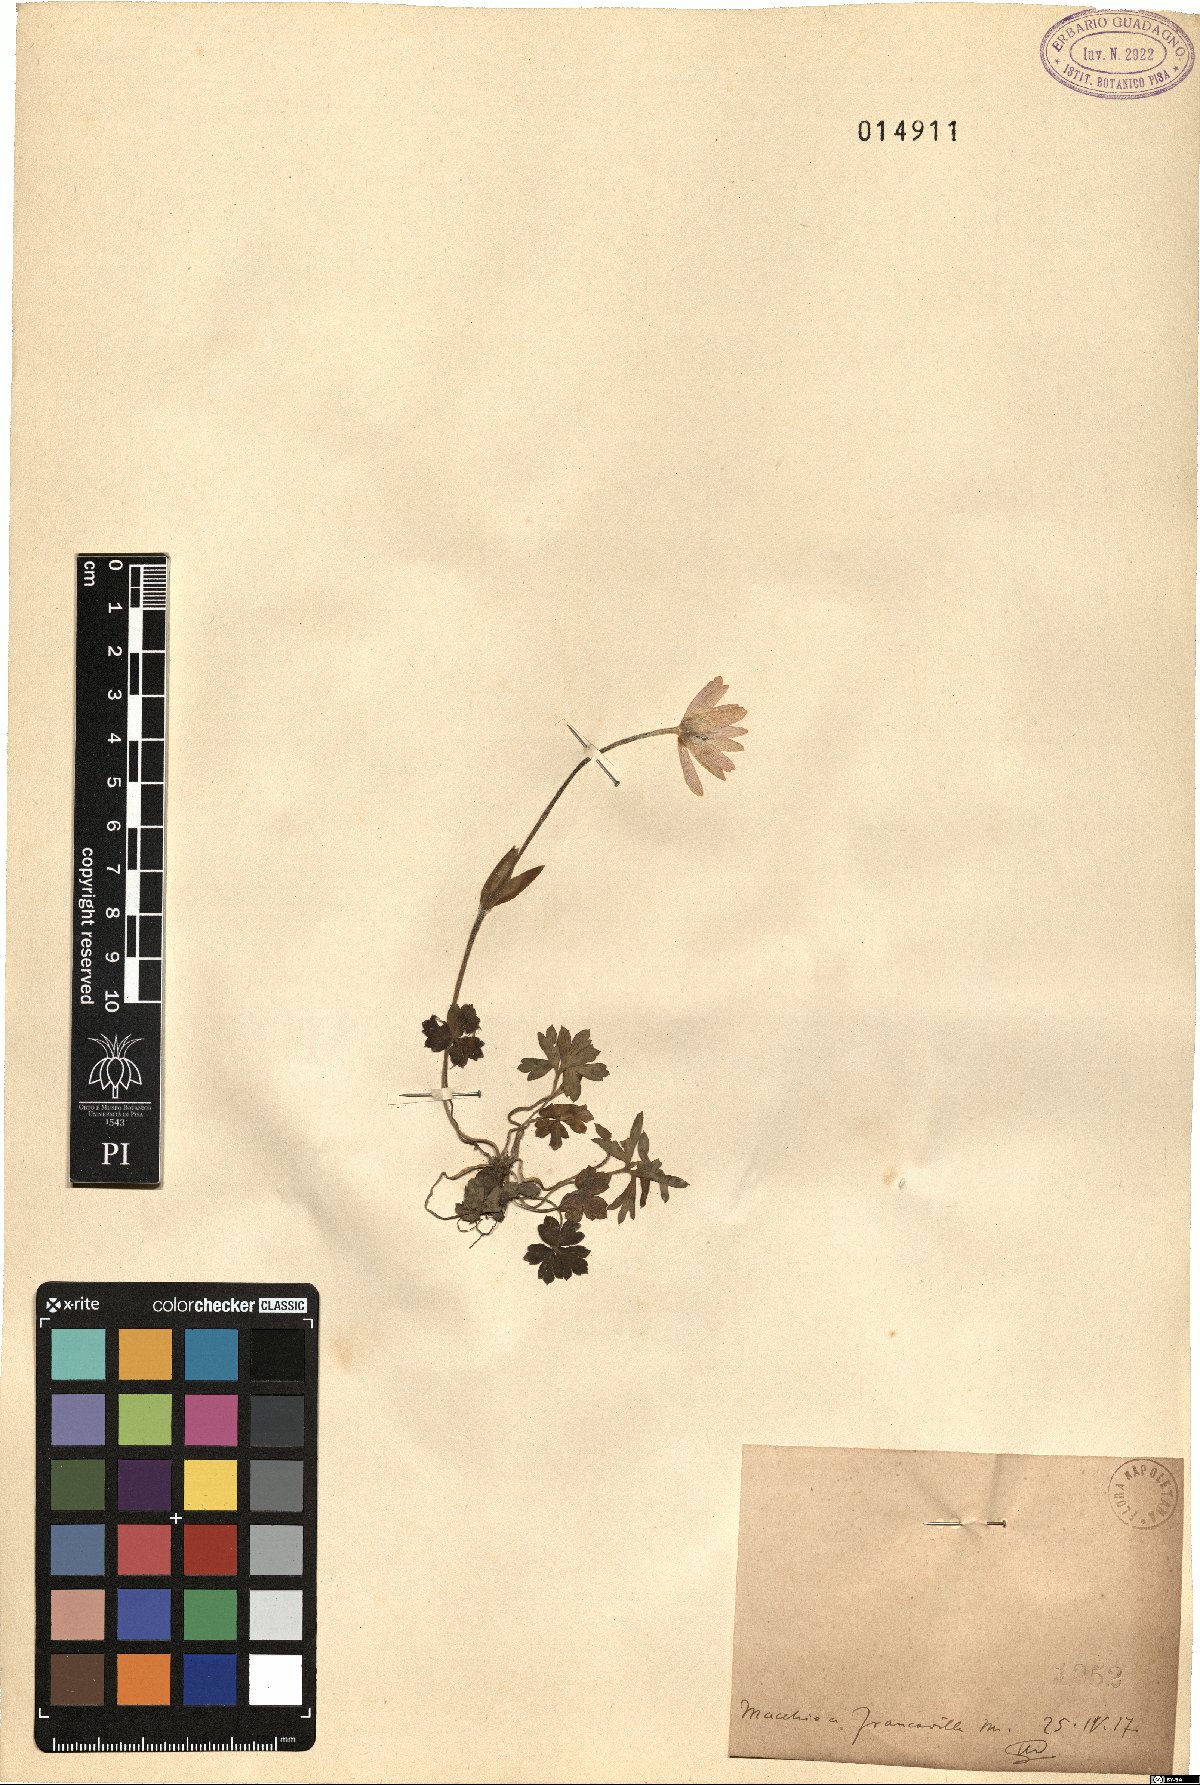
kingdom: Plantae
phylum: Tracheophyta
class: Magnoliopsida
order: Ranunculales
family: Ranunculaceae
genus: Anemone
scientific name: Anemone hortensis
